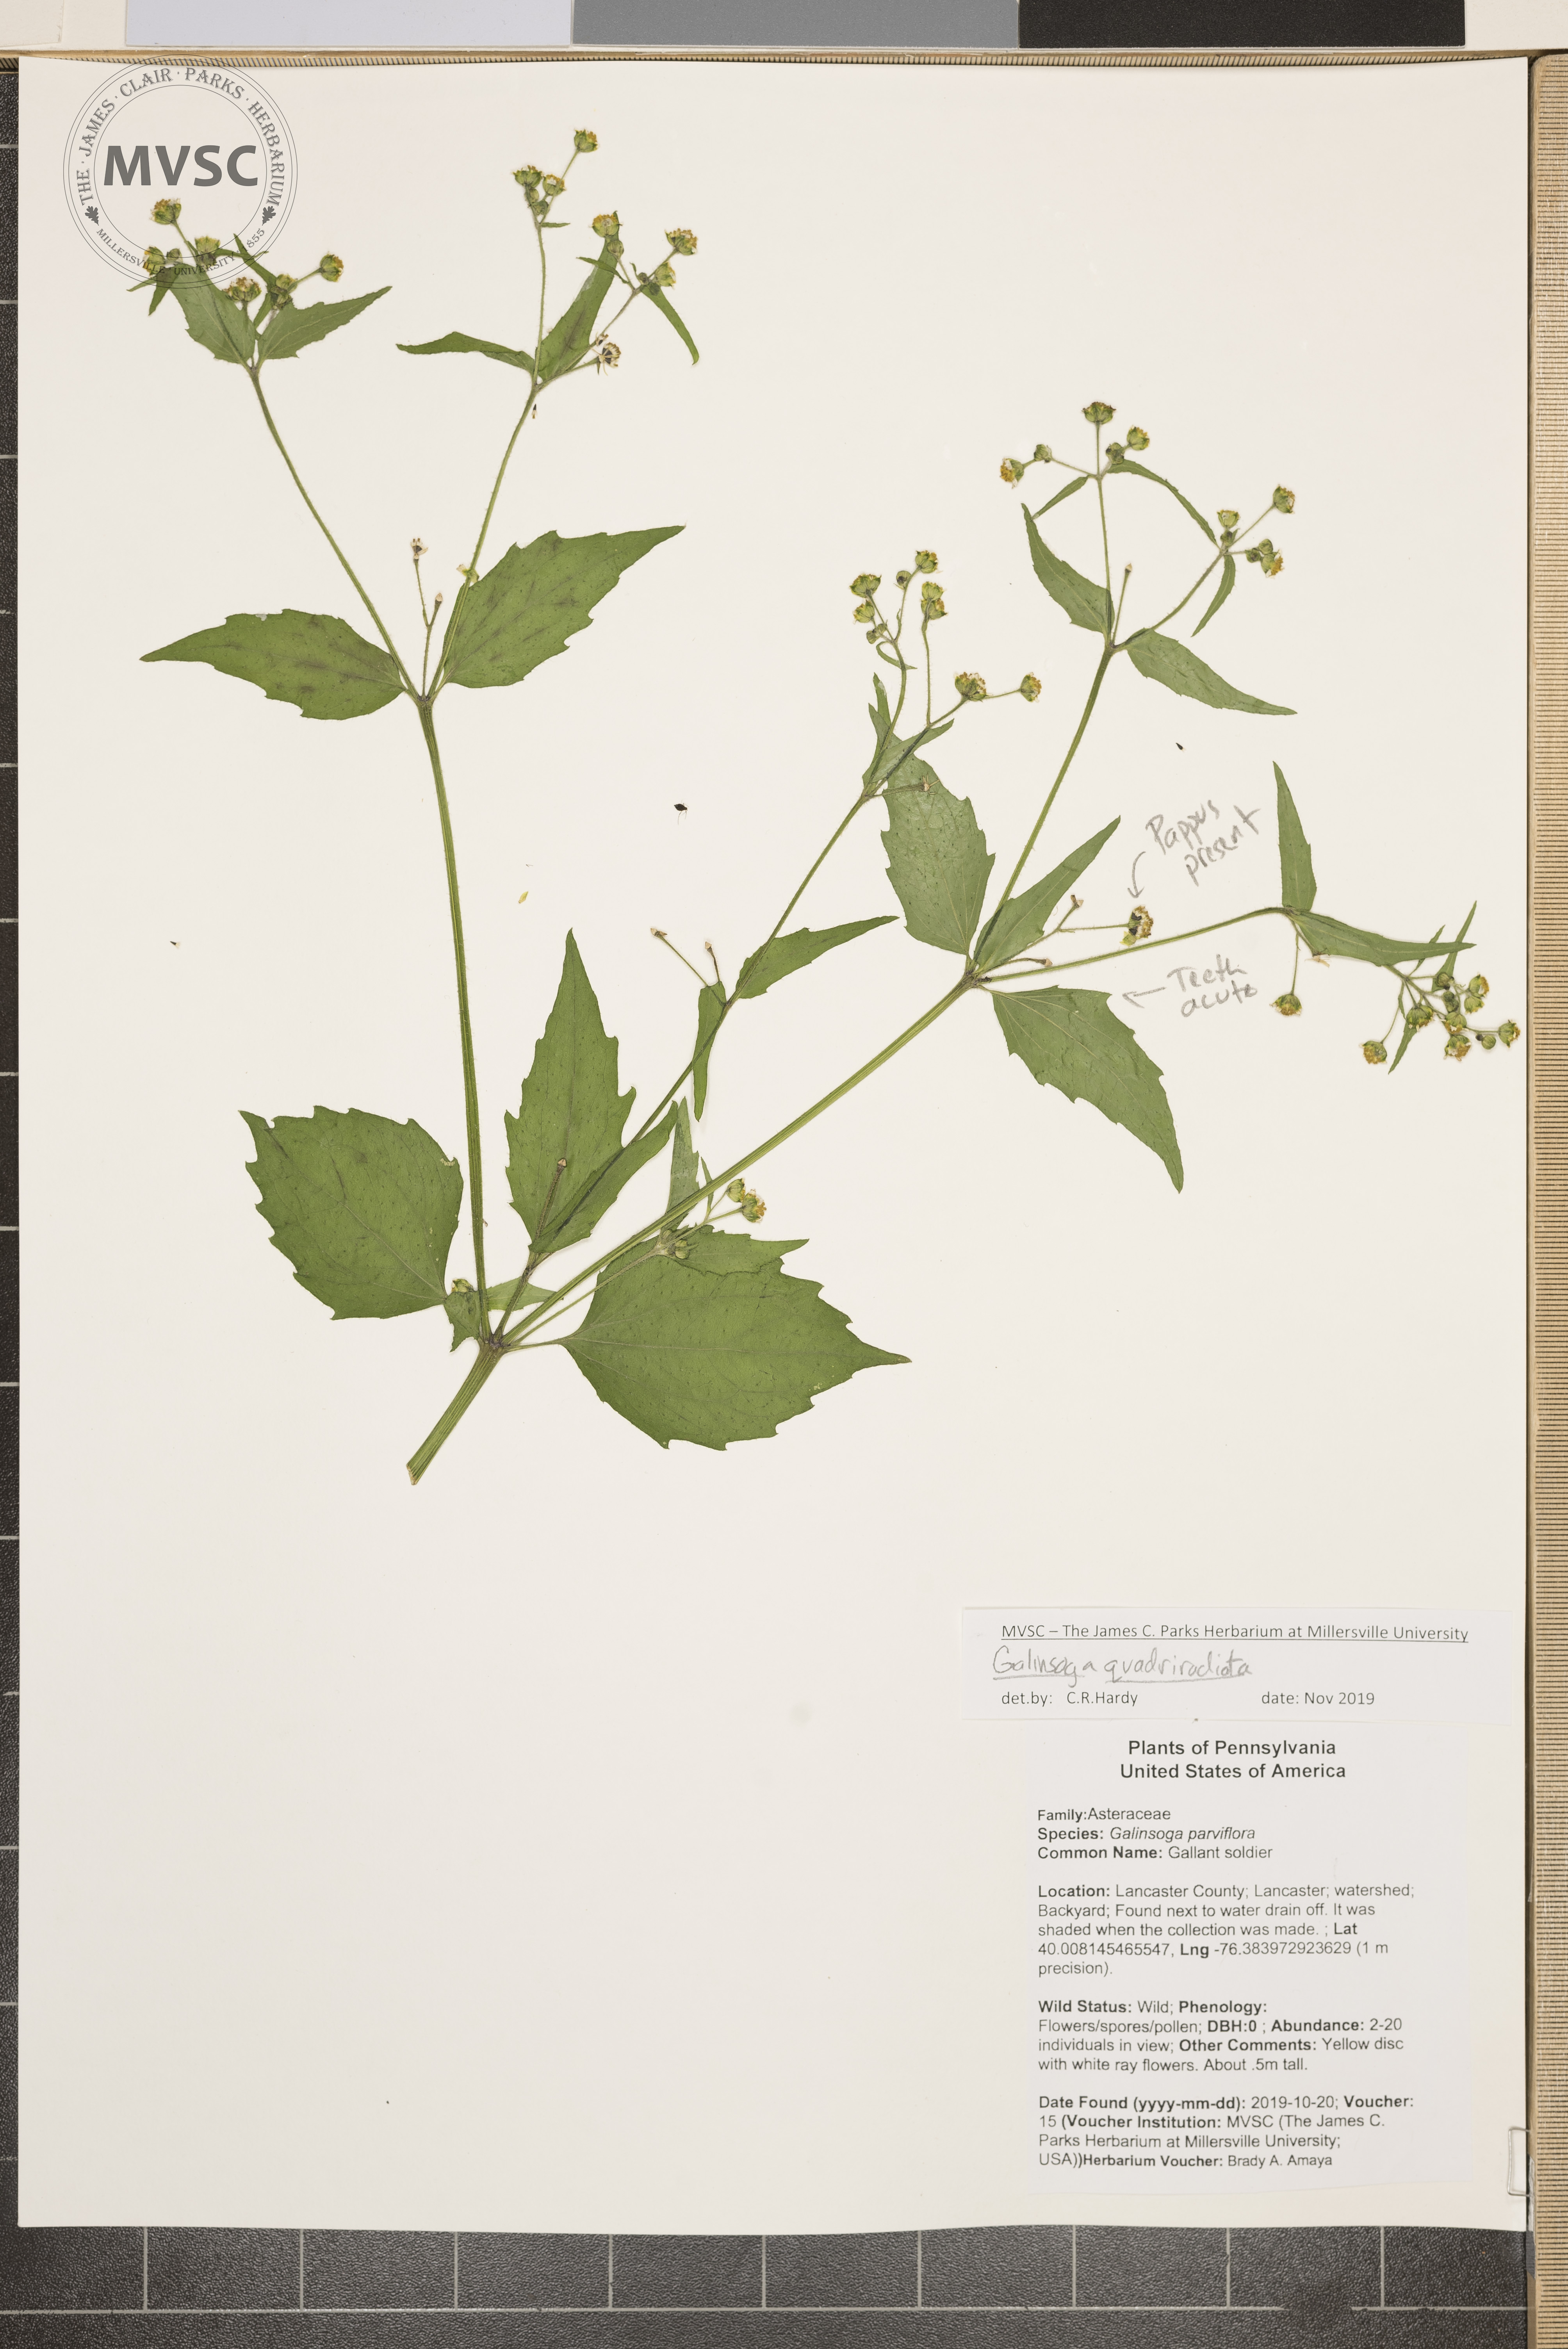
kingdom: Plantae
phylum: Tracheophyta
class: Magnoliopsida
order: Asterales
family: Asteraceae
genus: Galinsoga
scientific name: Galinsoga quadriradiata
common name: quickweed
